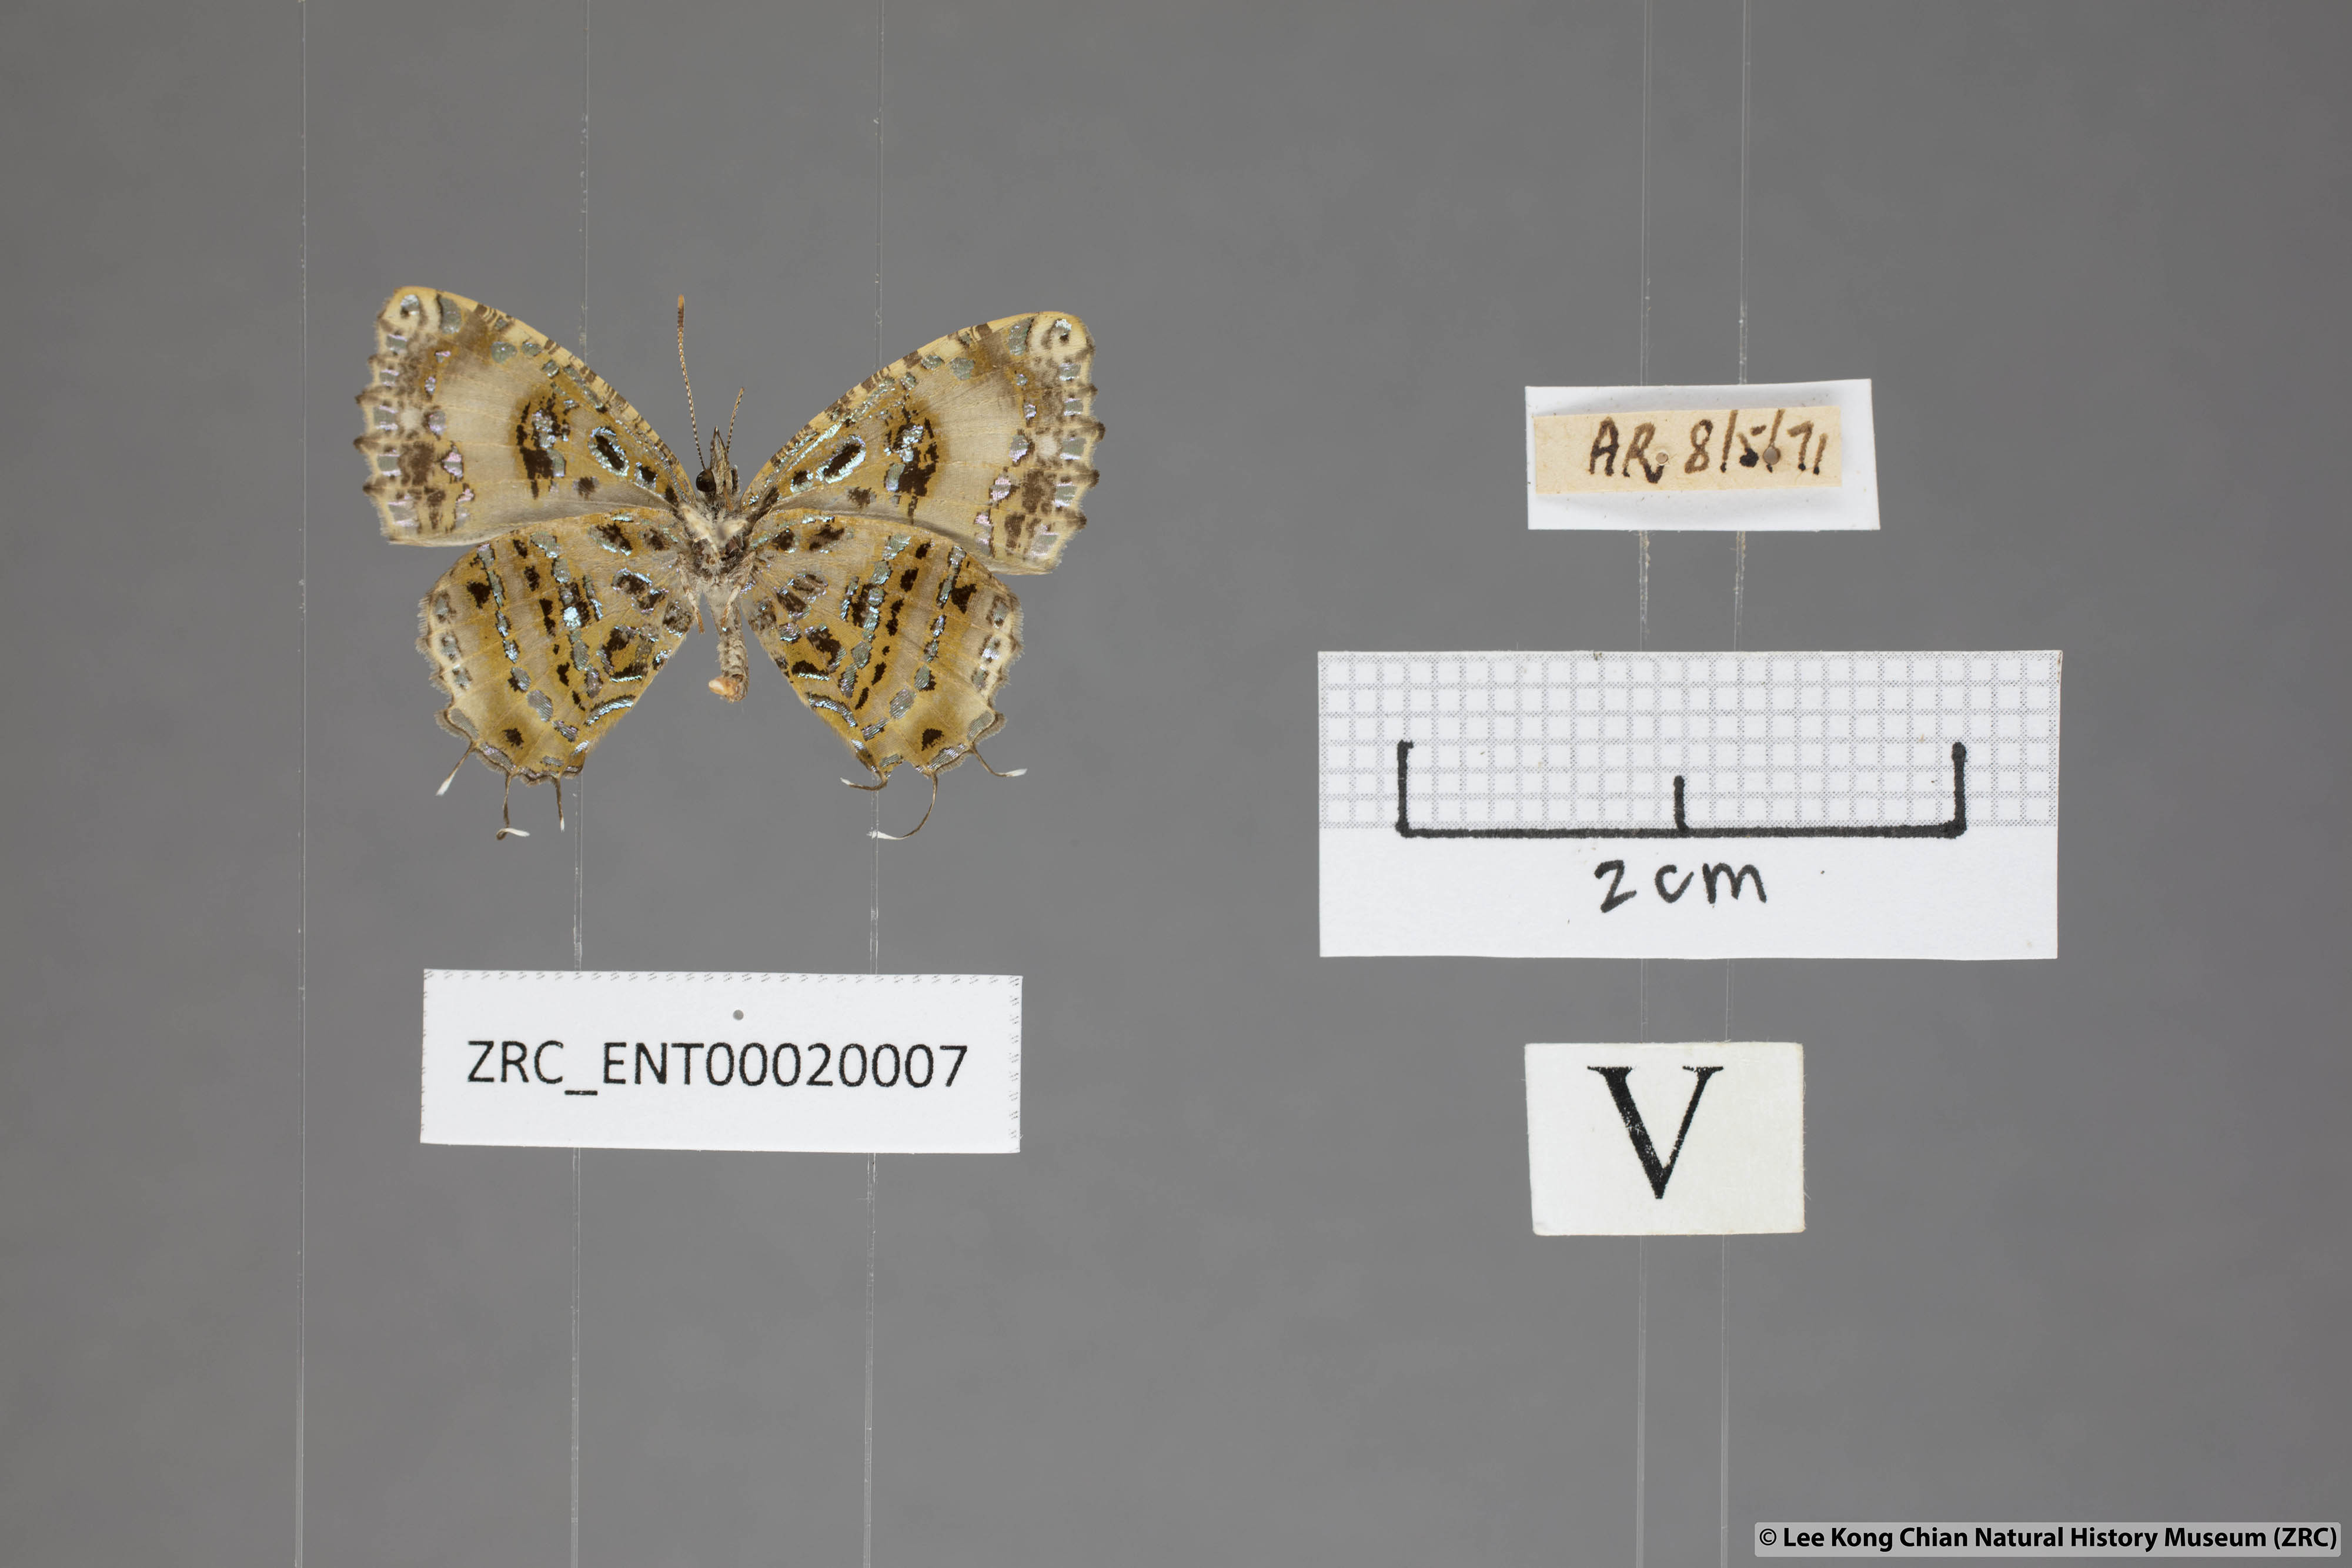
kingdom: Animalia
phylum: Arthropoda
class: Insecta
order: Lepidoptera
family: Lycaenidae
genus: Catapaecilma
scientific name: Catapaecilma elegans
